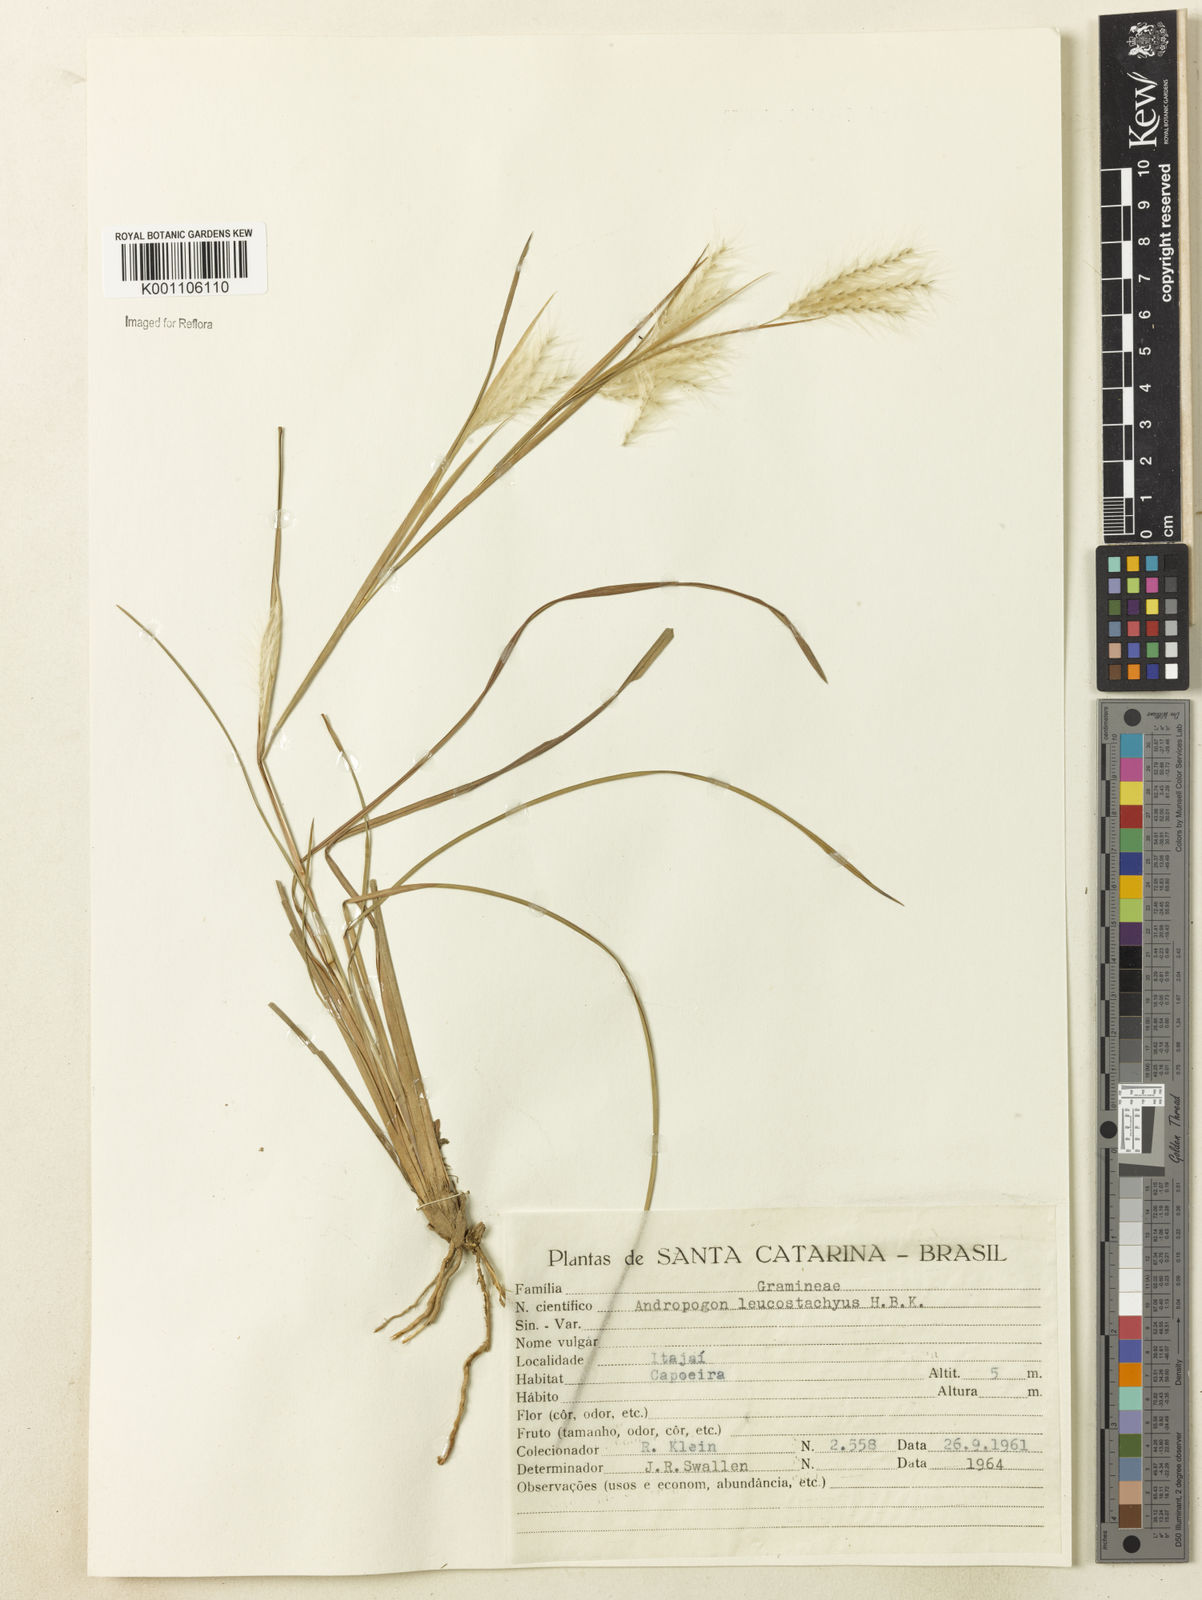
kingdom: Plantae
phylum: Tracheophyta
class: Liliopsida
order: Poales
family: Poaceae
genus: Andropogon
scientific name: Andropogon leucostachyus
